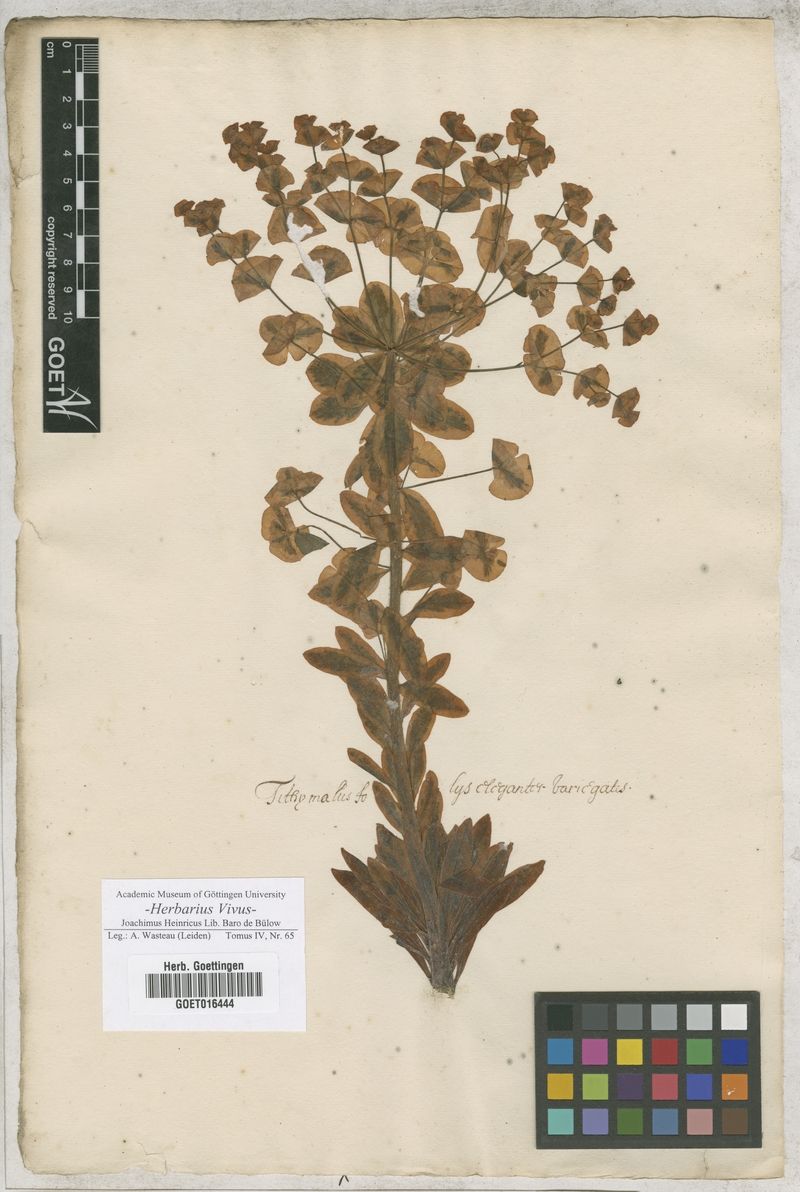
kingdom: Plantae
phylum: Tracheophyta
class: Magnoliopsida
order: Malpighiales
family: Euphorbiaceae
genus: Tithymalus
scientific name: Tithymalus
